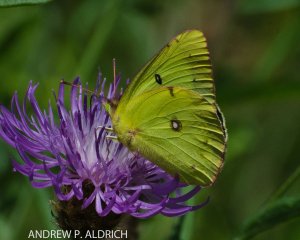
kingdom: Animalia
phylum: Arthropoda
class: Insecta
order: Lepidoptera
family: Pieridae
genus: Colias
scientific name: Colias philodice
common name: Clouded Sulphur
